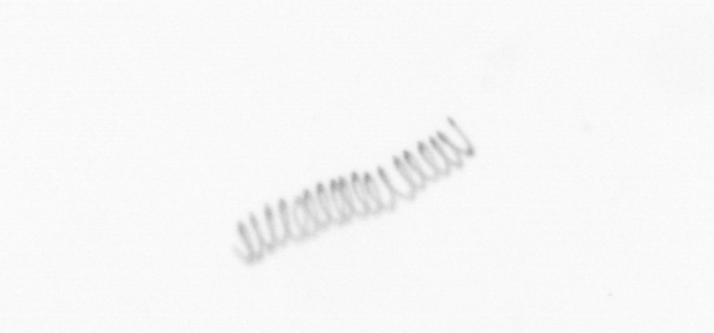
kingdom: Chromista
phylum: Ochrophyta
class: Bacillariophyceae
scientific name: Bacillariophyceae
